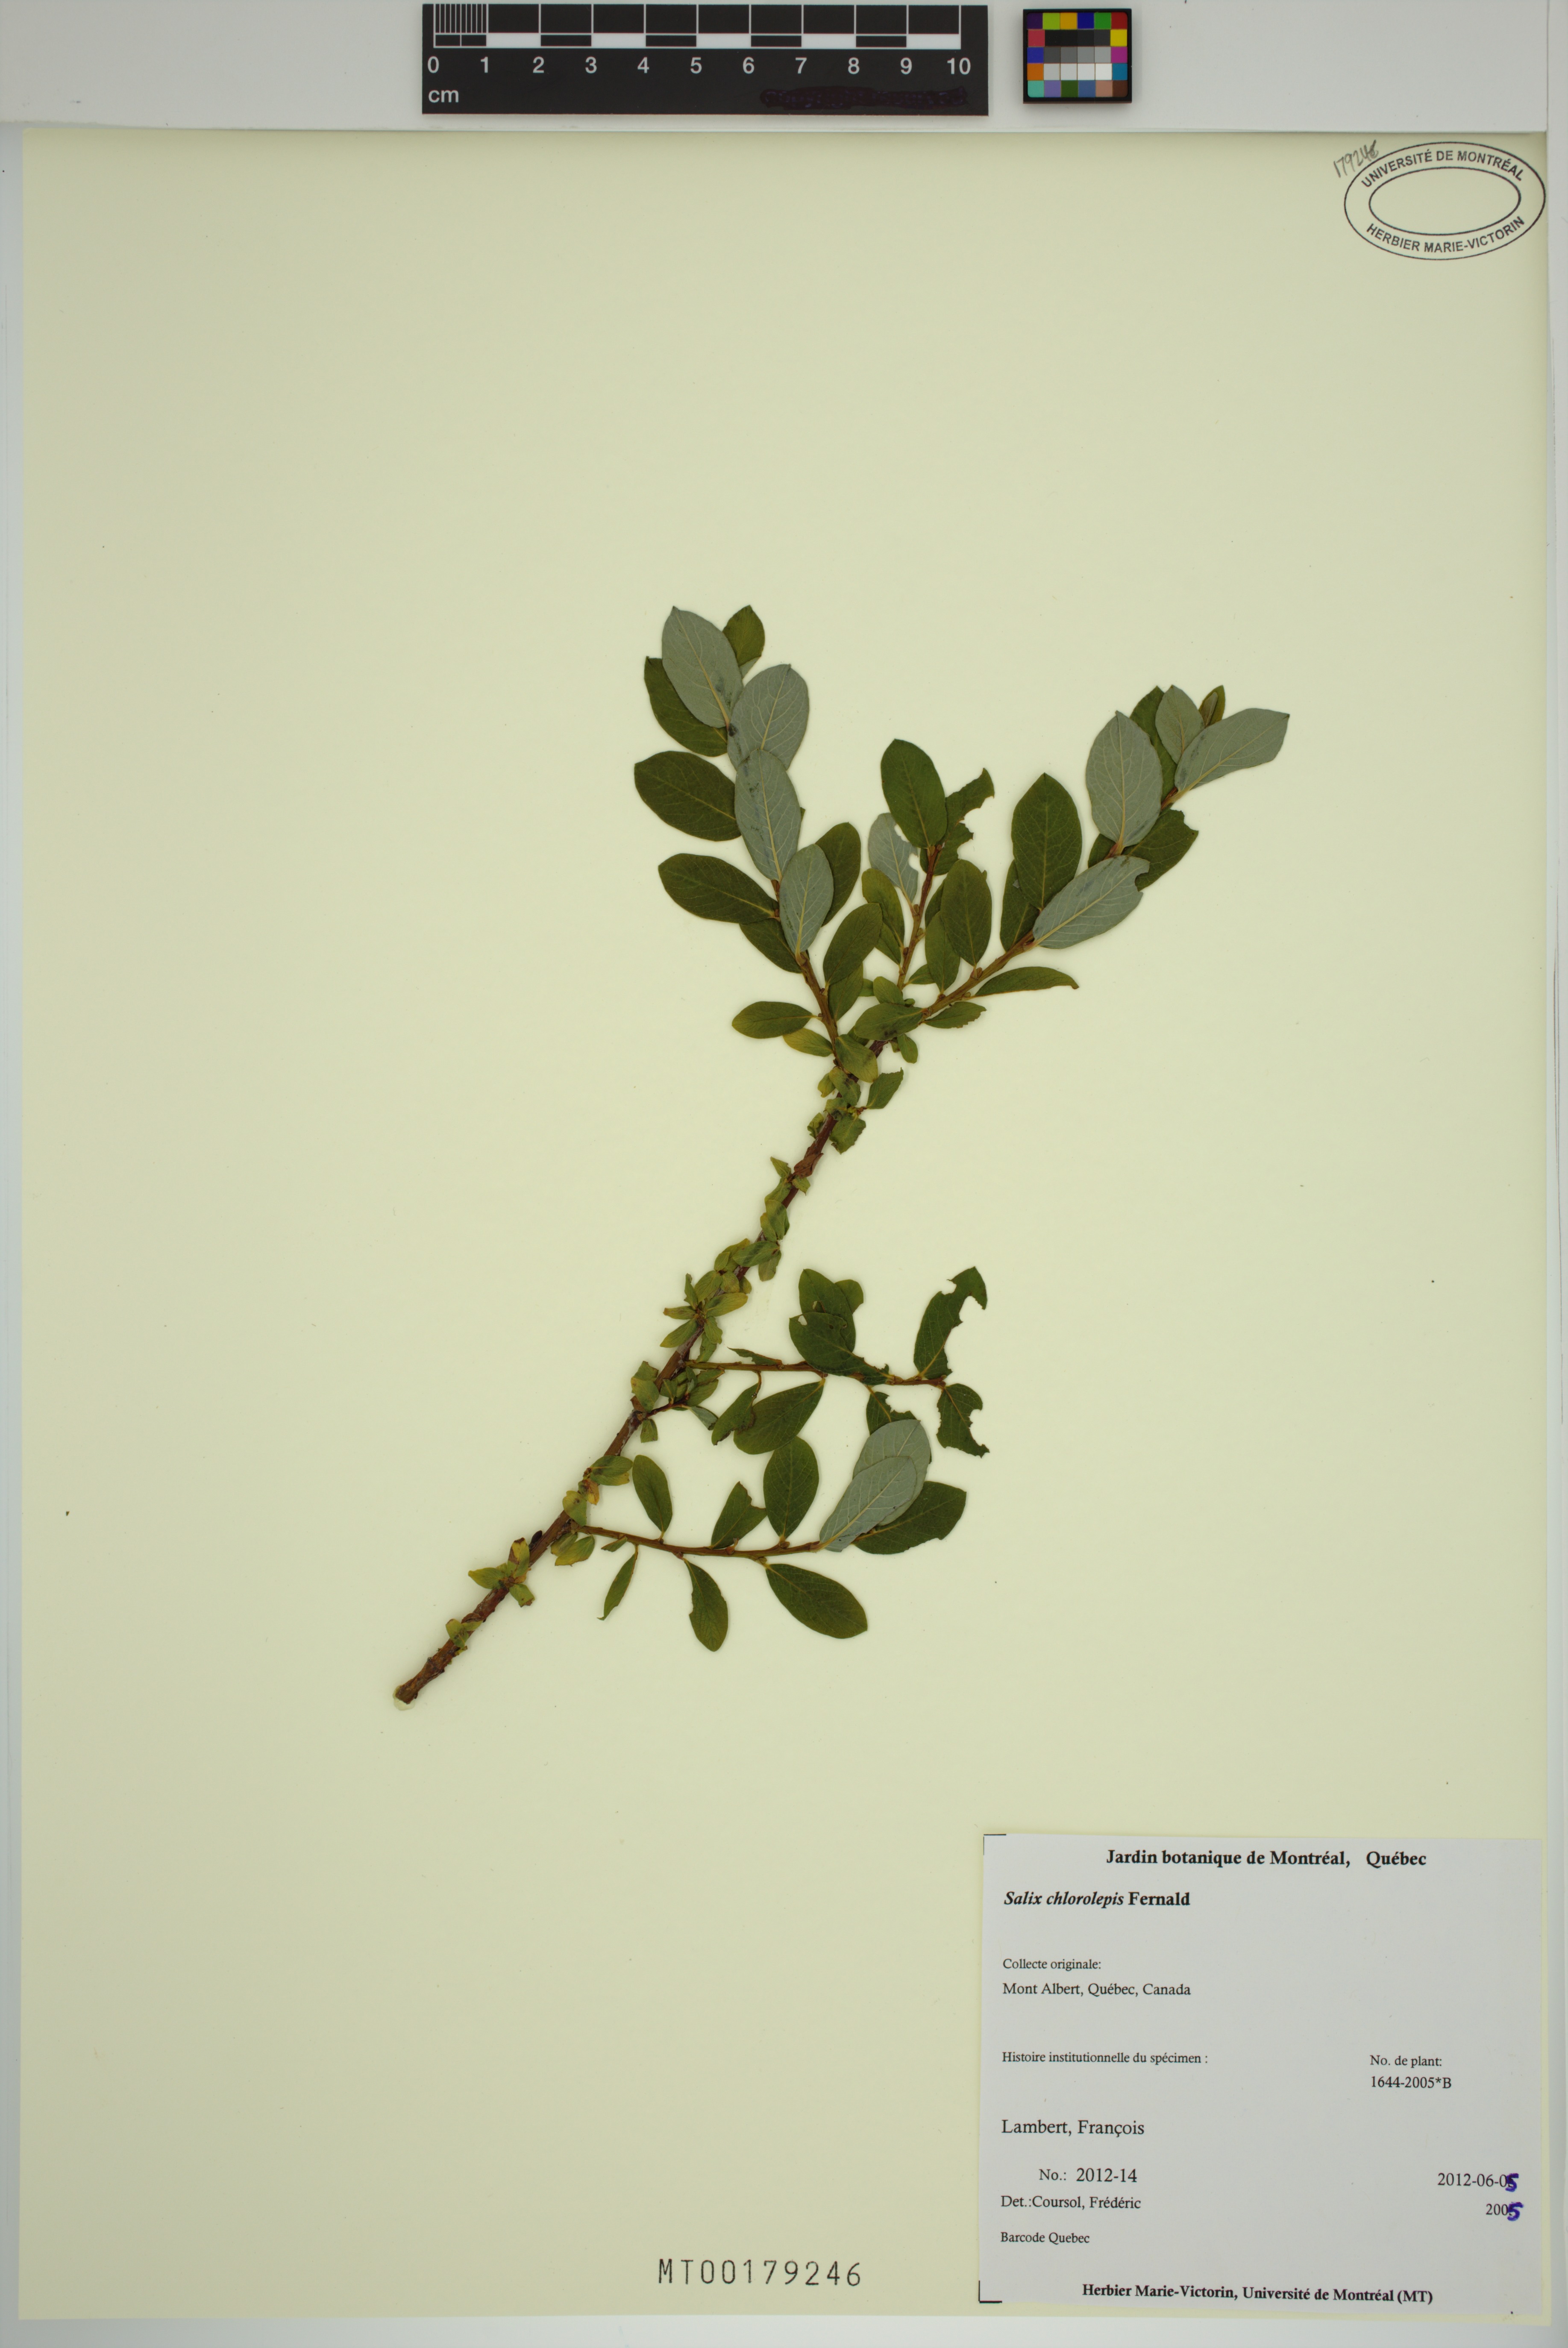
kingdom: Plantae
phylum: Tracheophyta
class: Magnoliopsida
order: Malpighiales
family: Salicaceae
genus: Salix
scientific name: Salix chlorolepis
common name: Green-bract willow
